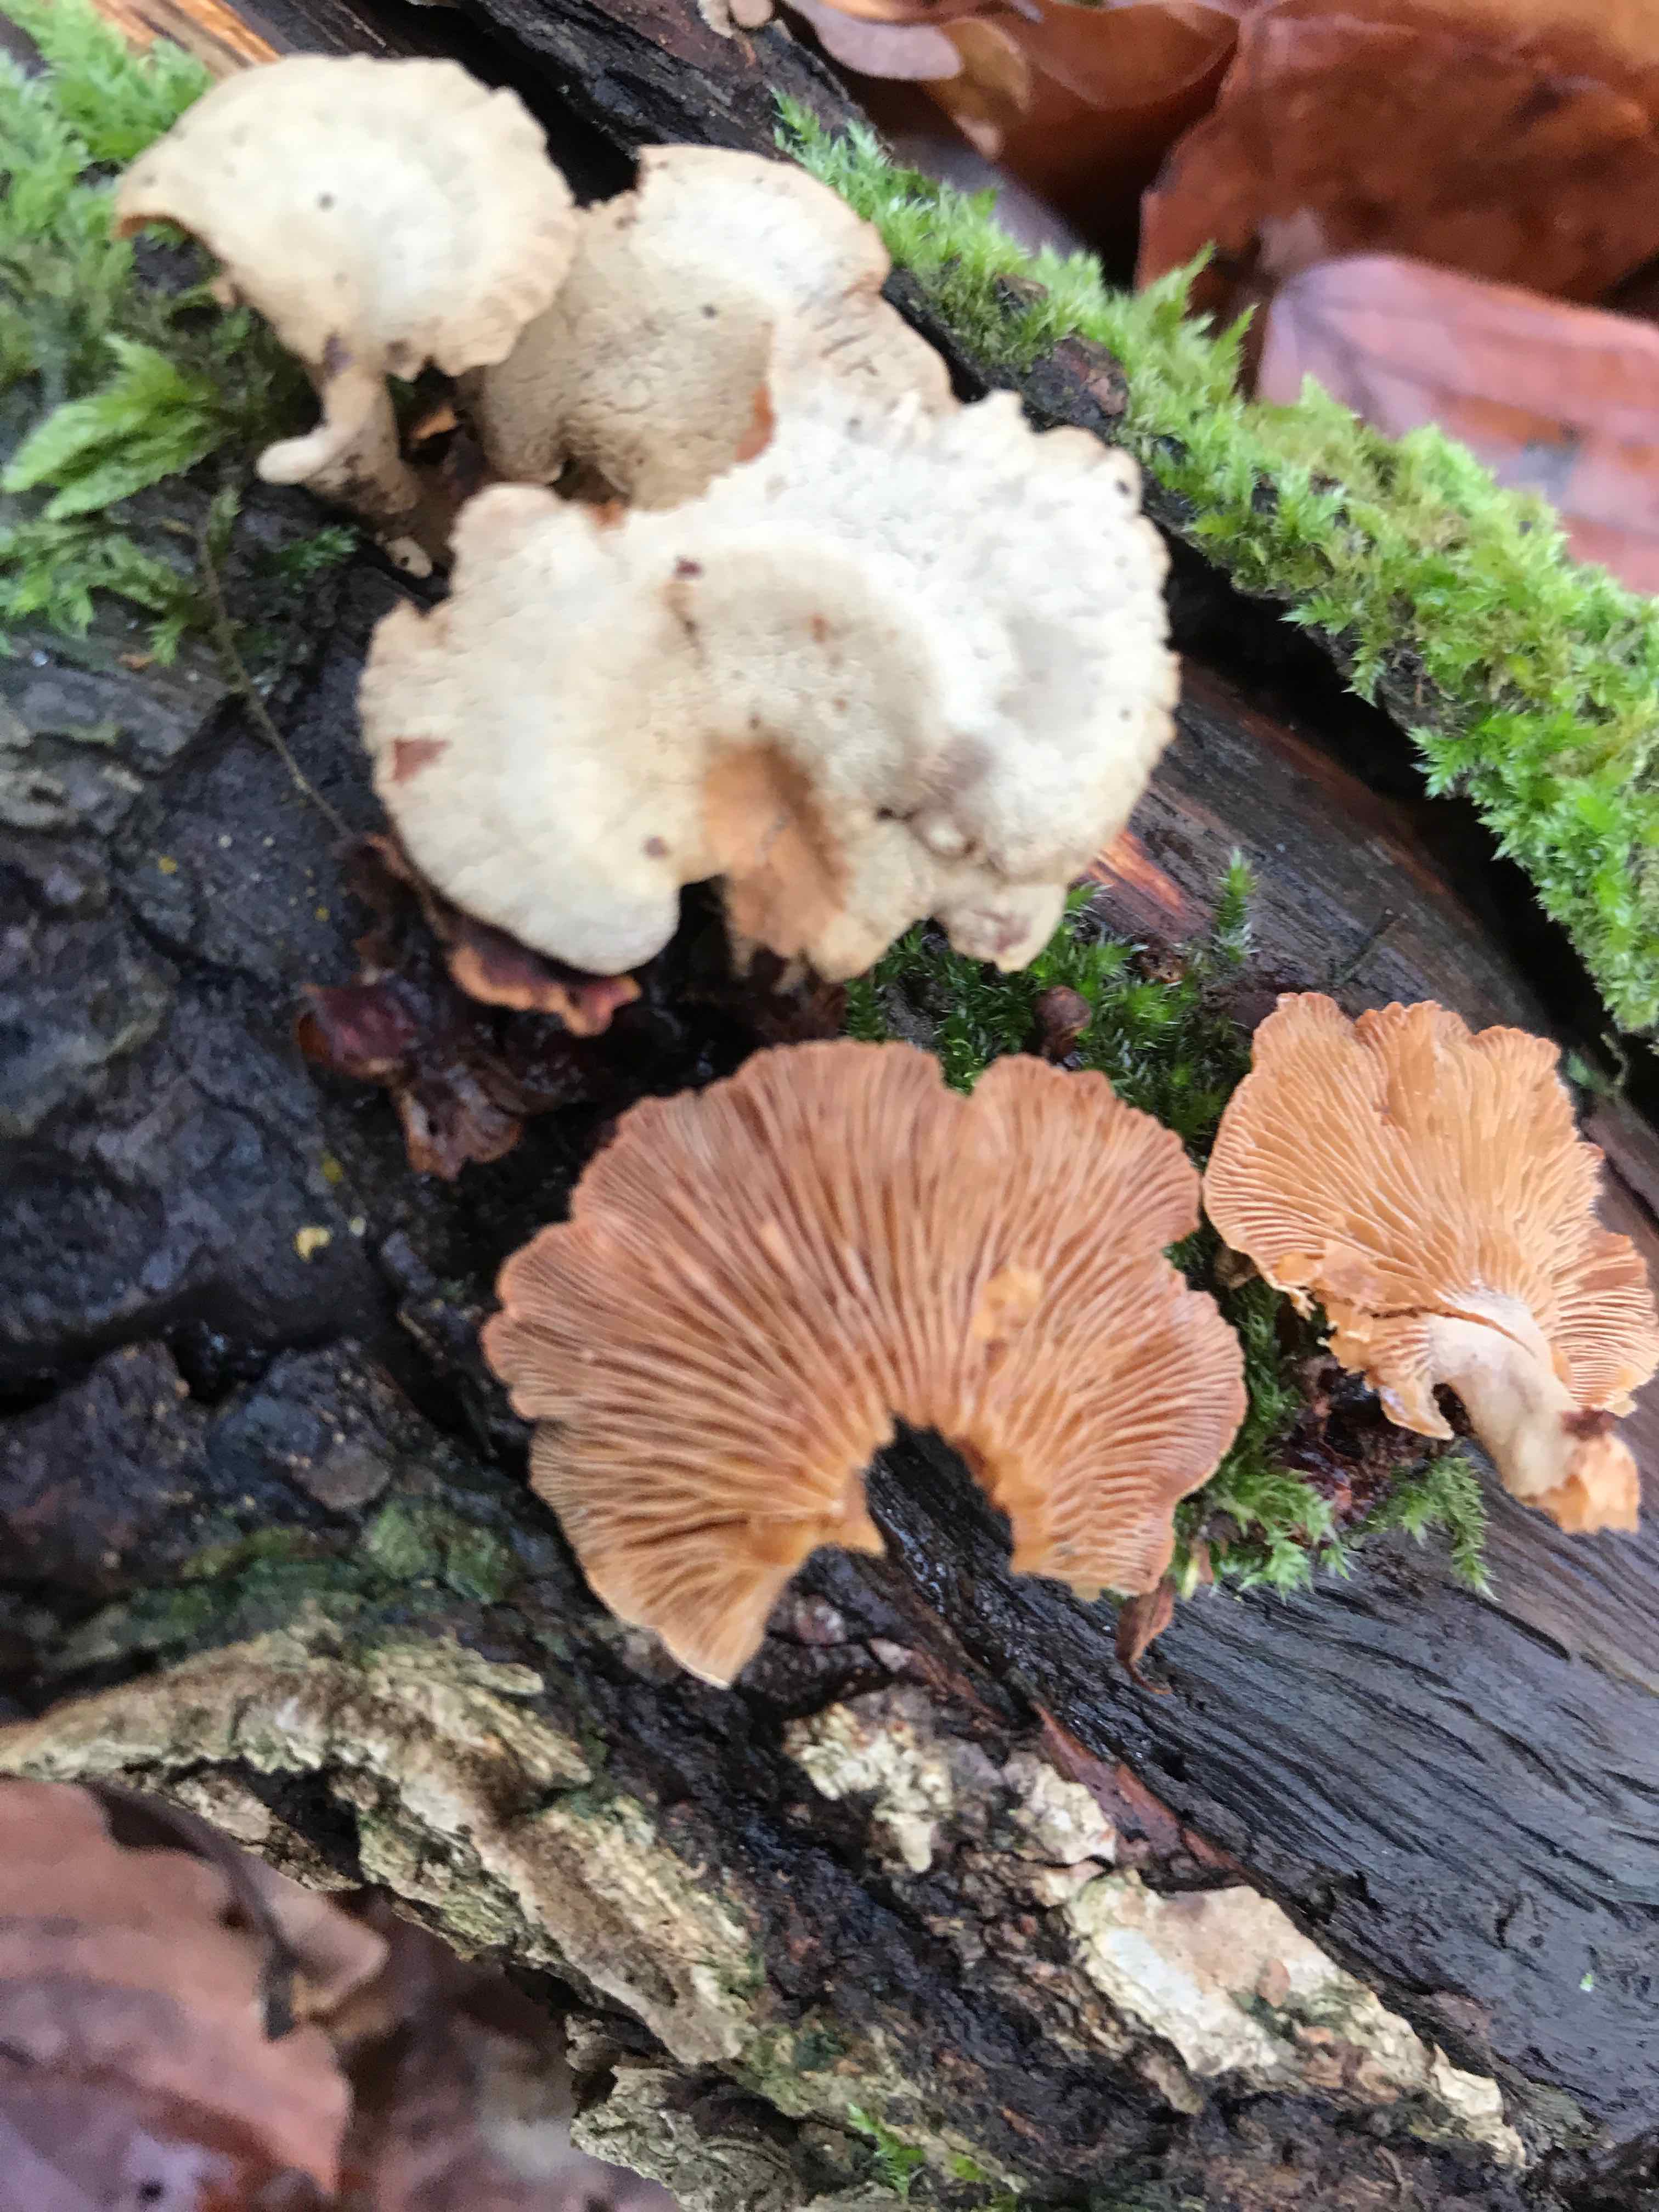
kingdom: Fungi
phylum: Basidiomycota
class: Agaricomycetes
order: Agaricales
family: Mycenaceae
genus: Panellus
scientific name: Panellus stipticus
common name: kliddet epaulethat
